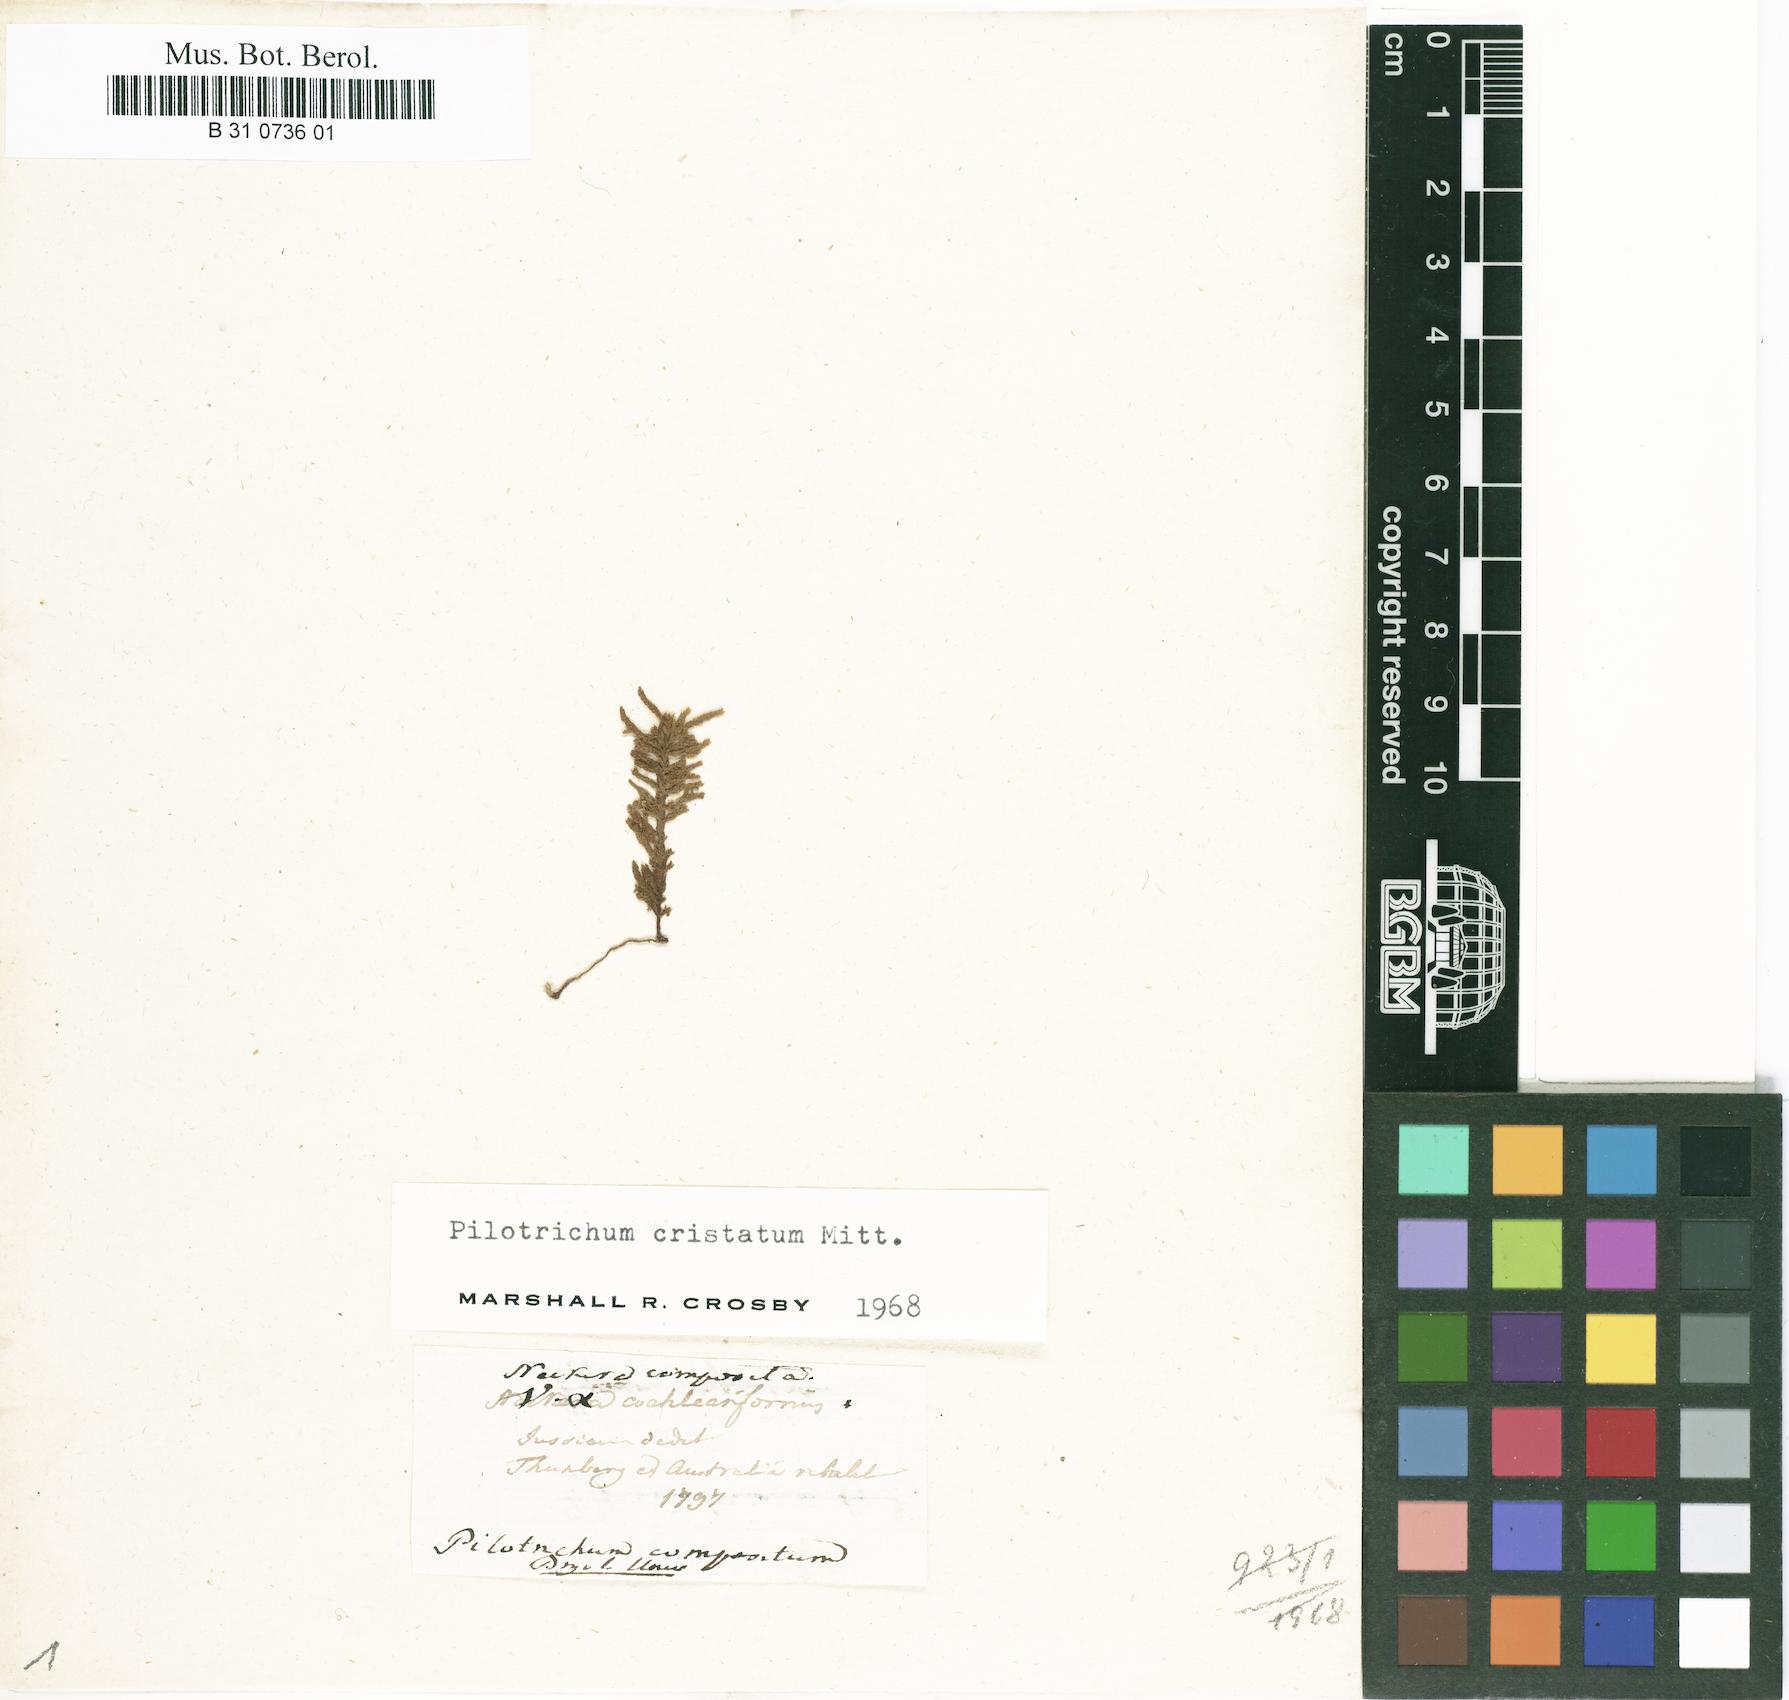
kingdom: Plantae
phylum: Bryophyta
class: Bryopsida
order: Hookeriales
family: Pilotrichaceae
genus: Pilotrichum
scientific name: Pilotrichum compositum
